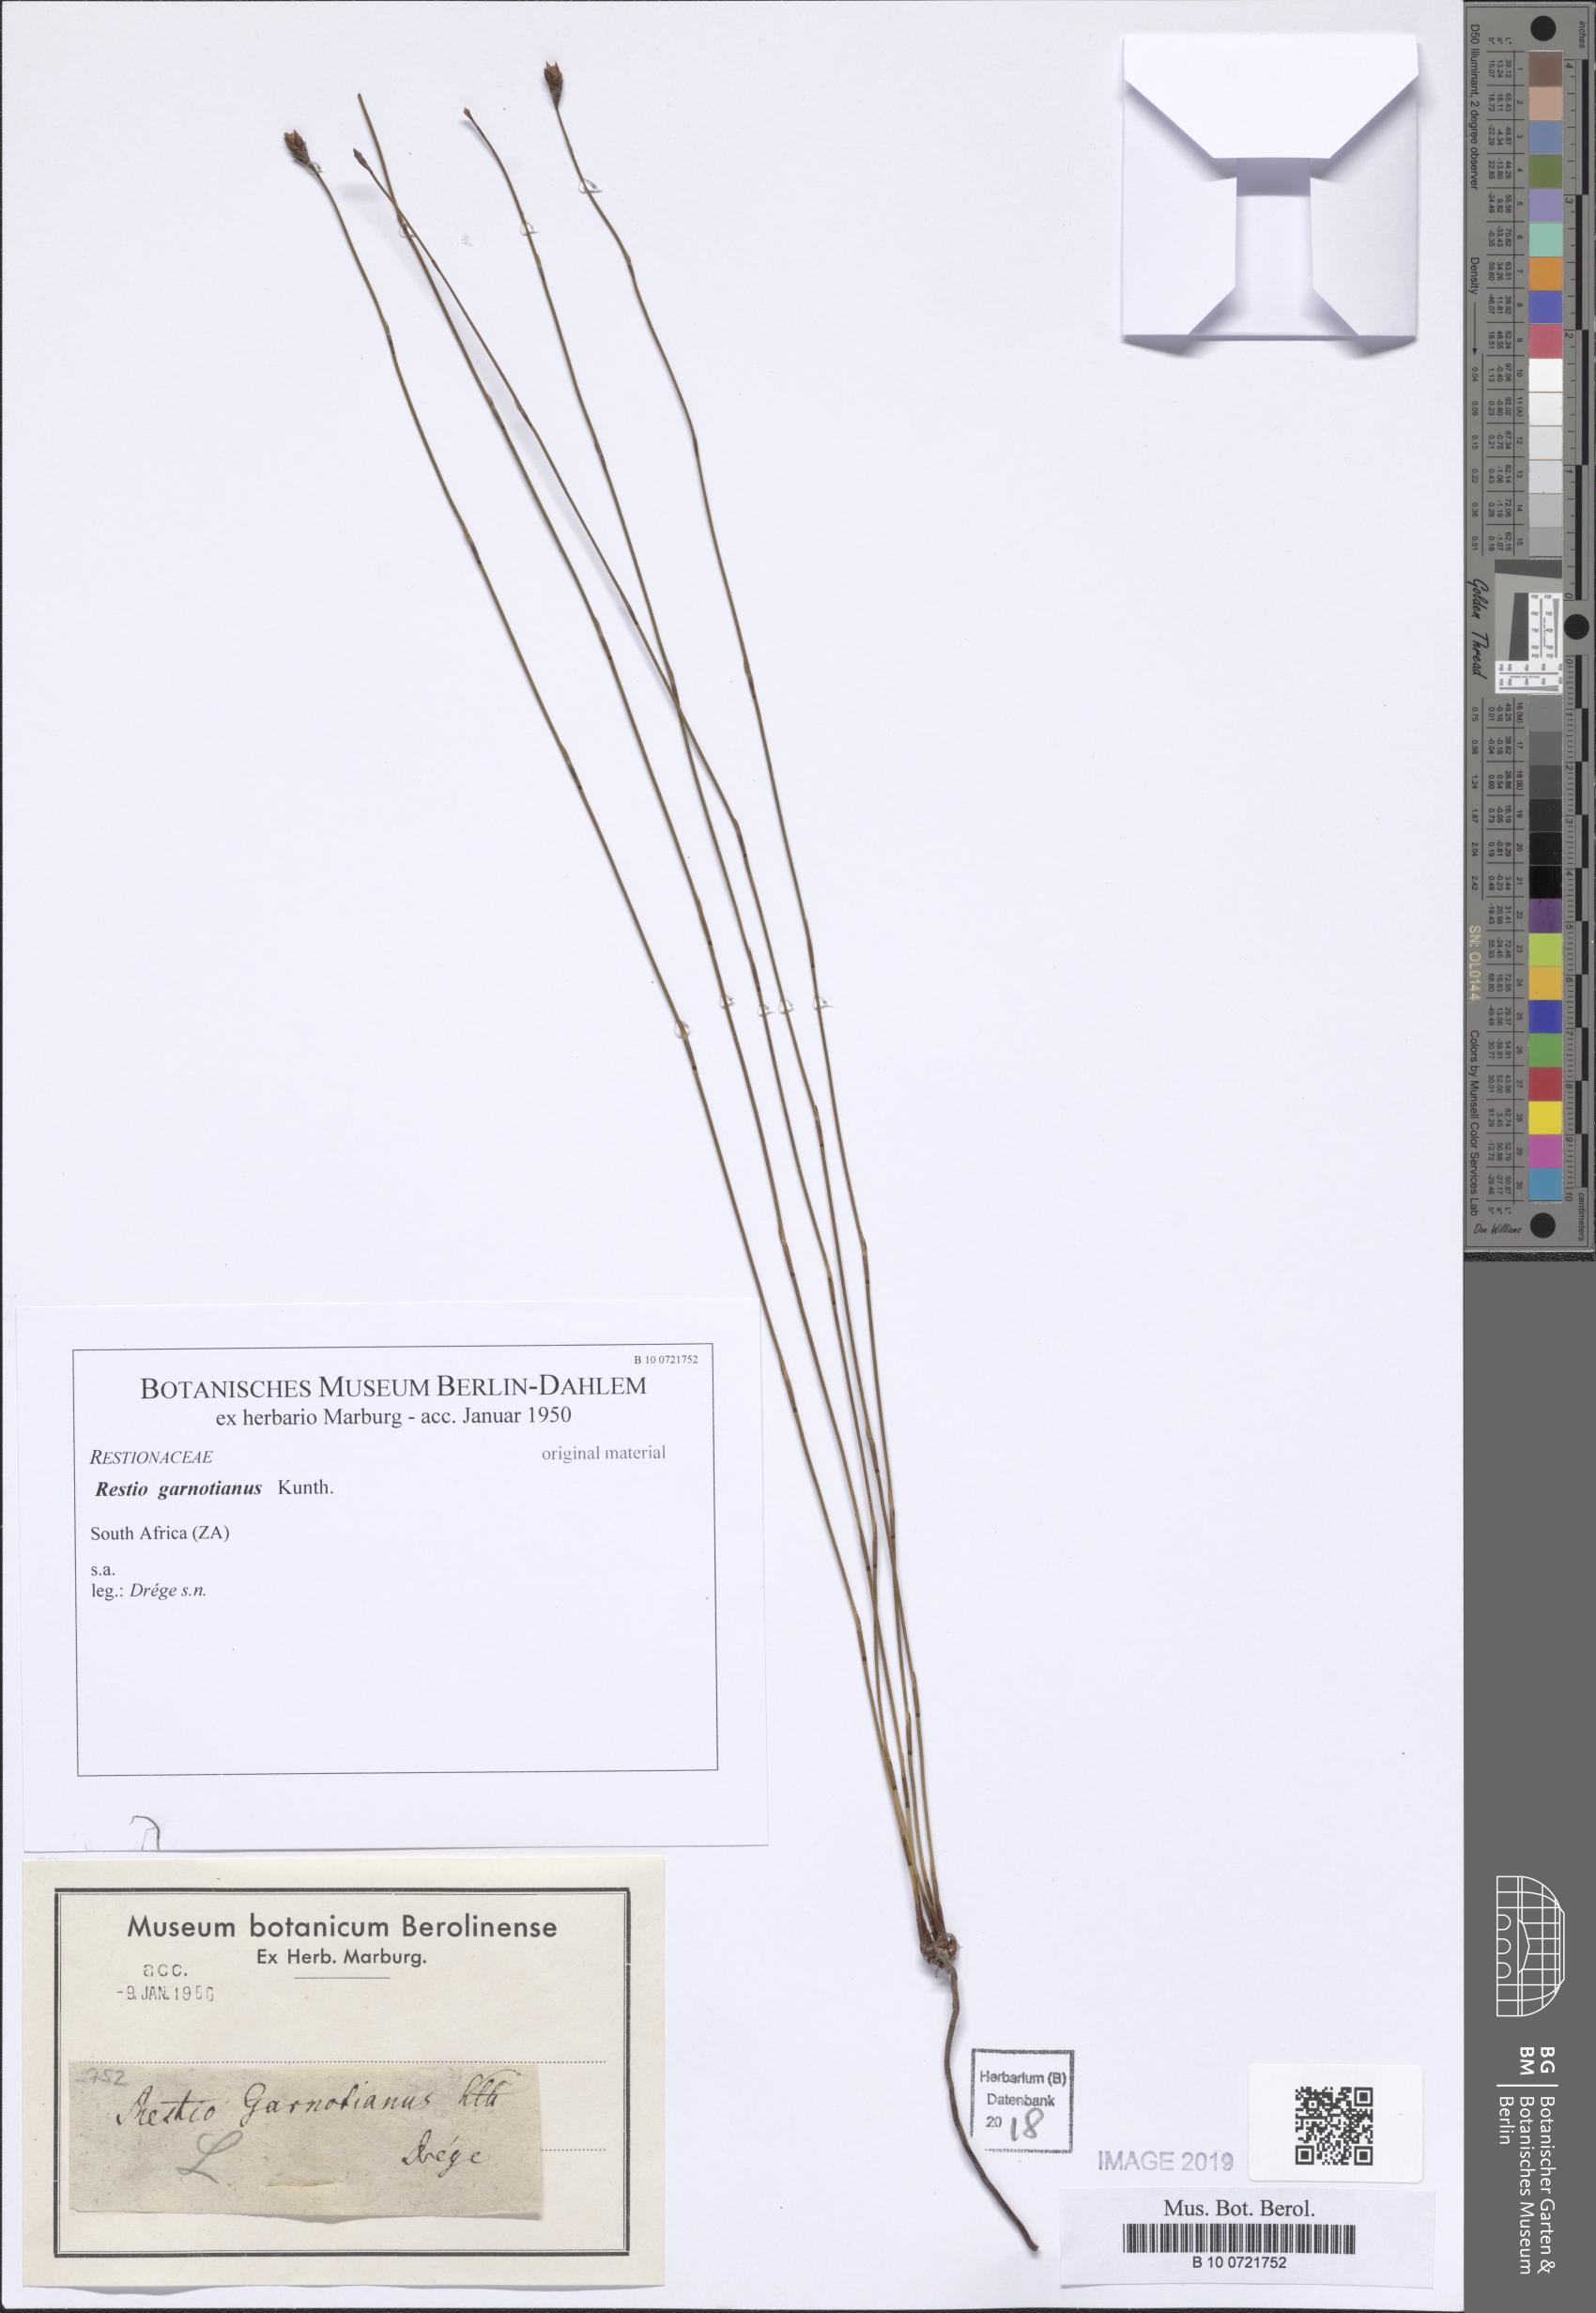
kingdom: Plantae
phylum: Tracheophyta
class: Liliopsida
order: Poales
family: Restionaceae
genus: Restio
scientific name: Restio filiformis
